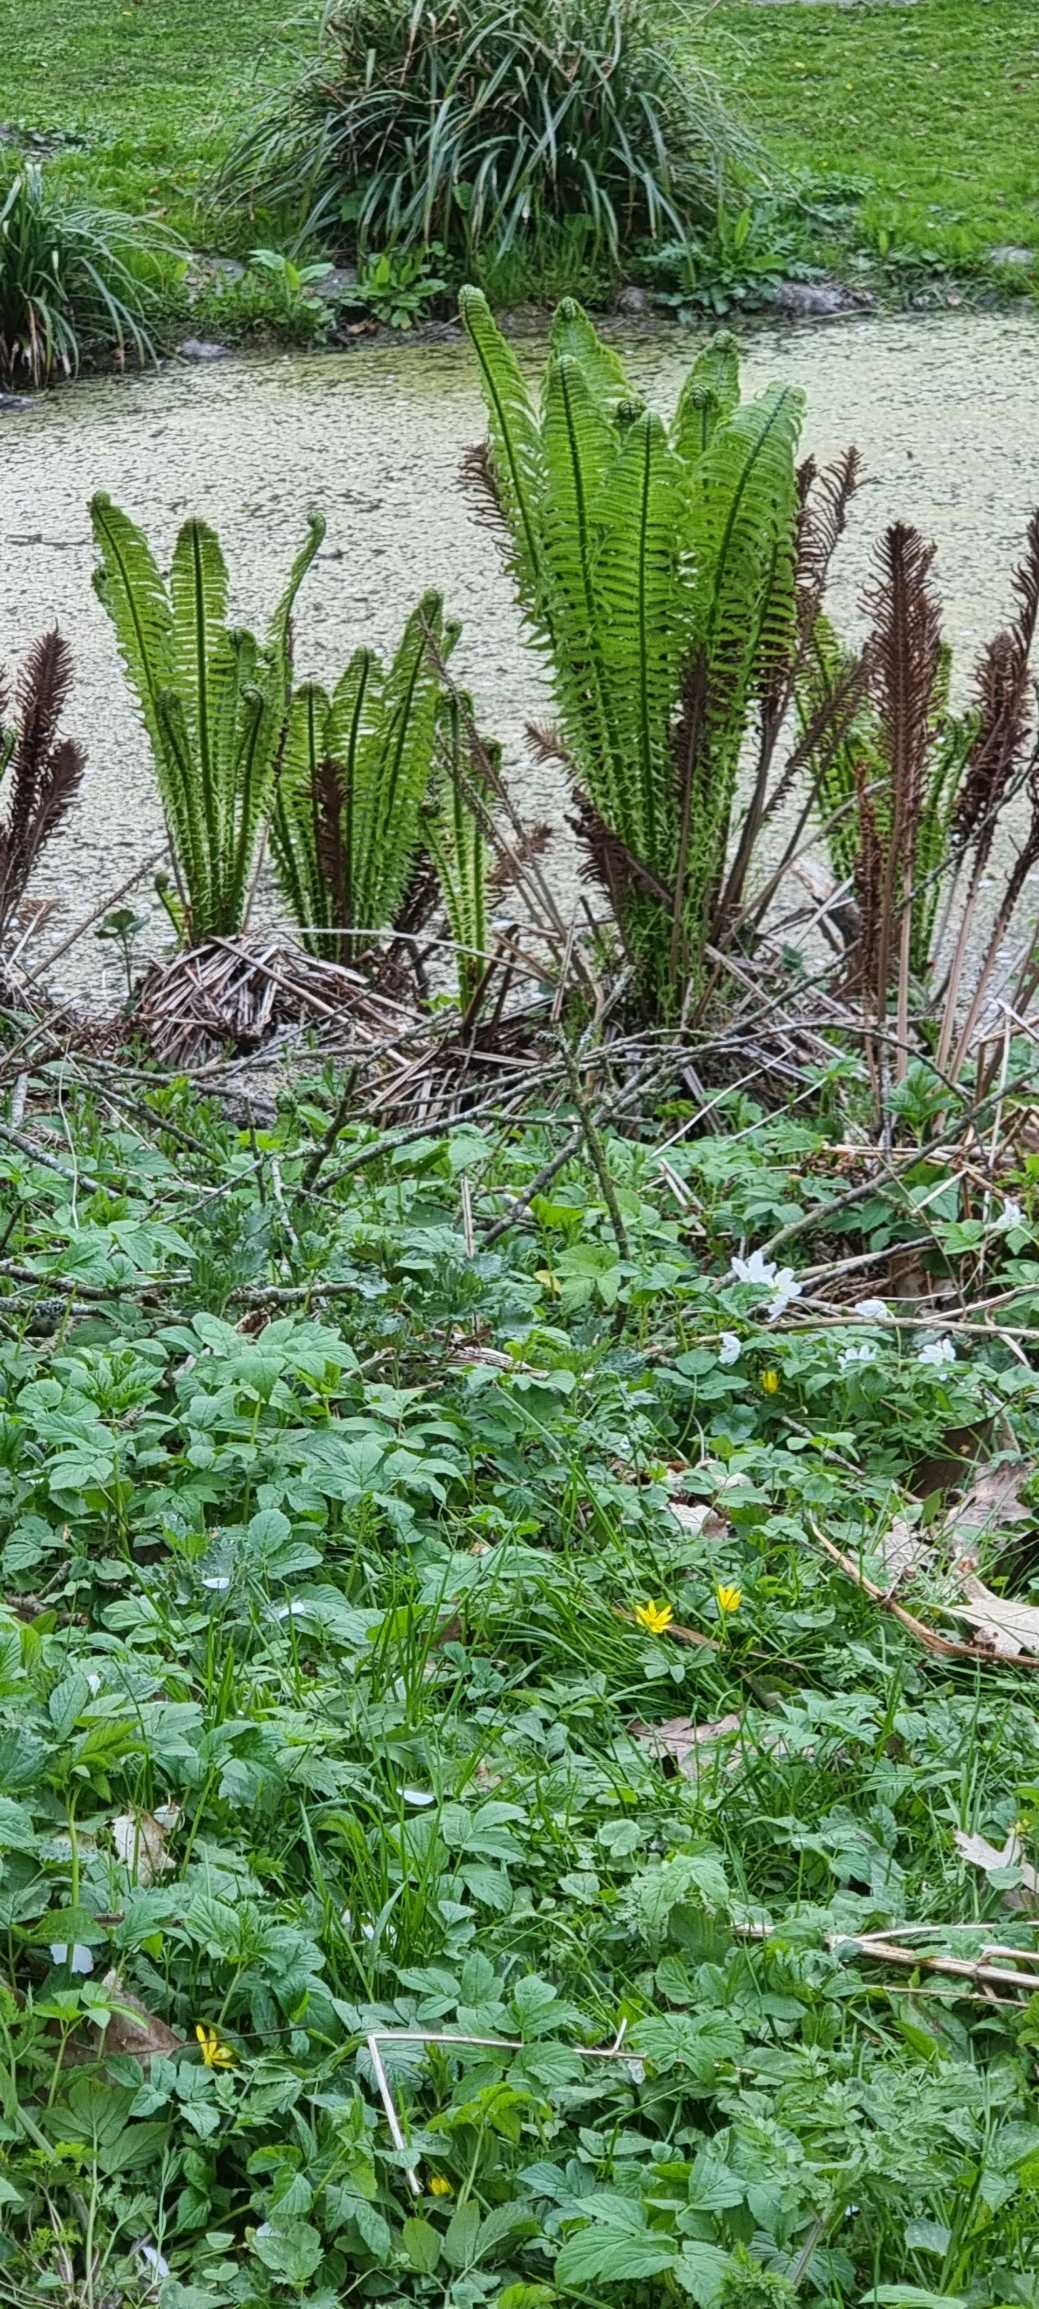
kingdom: Plantae
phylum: Tracheophyta
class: Polypodiopsida
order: Polypodiales
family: Onocleaceae
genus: Matteuccia
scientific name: Matteuccia struthiopteris
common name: Strudsvinge
